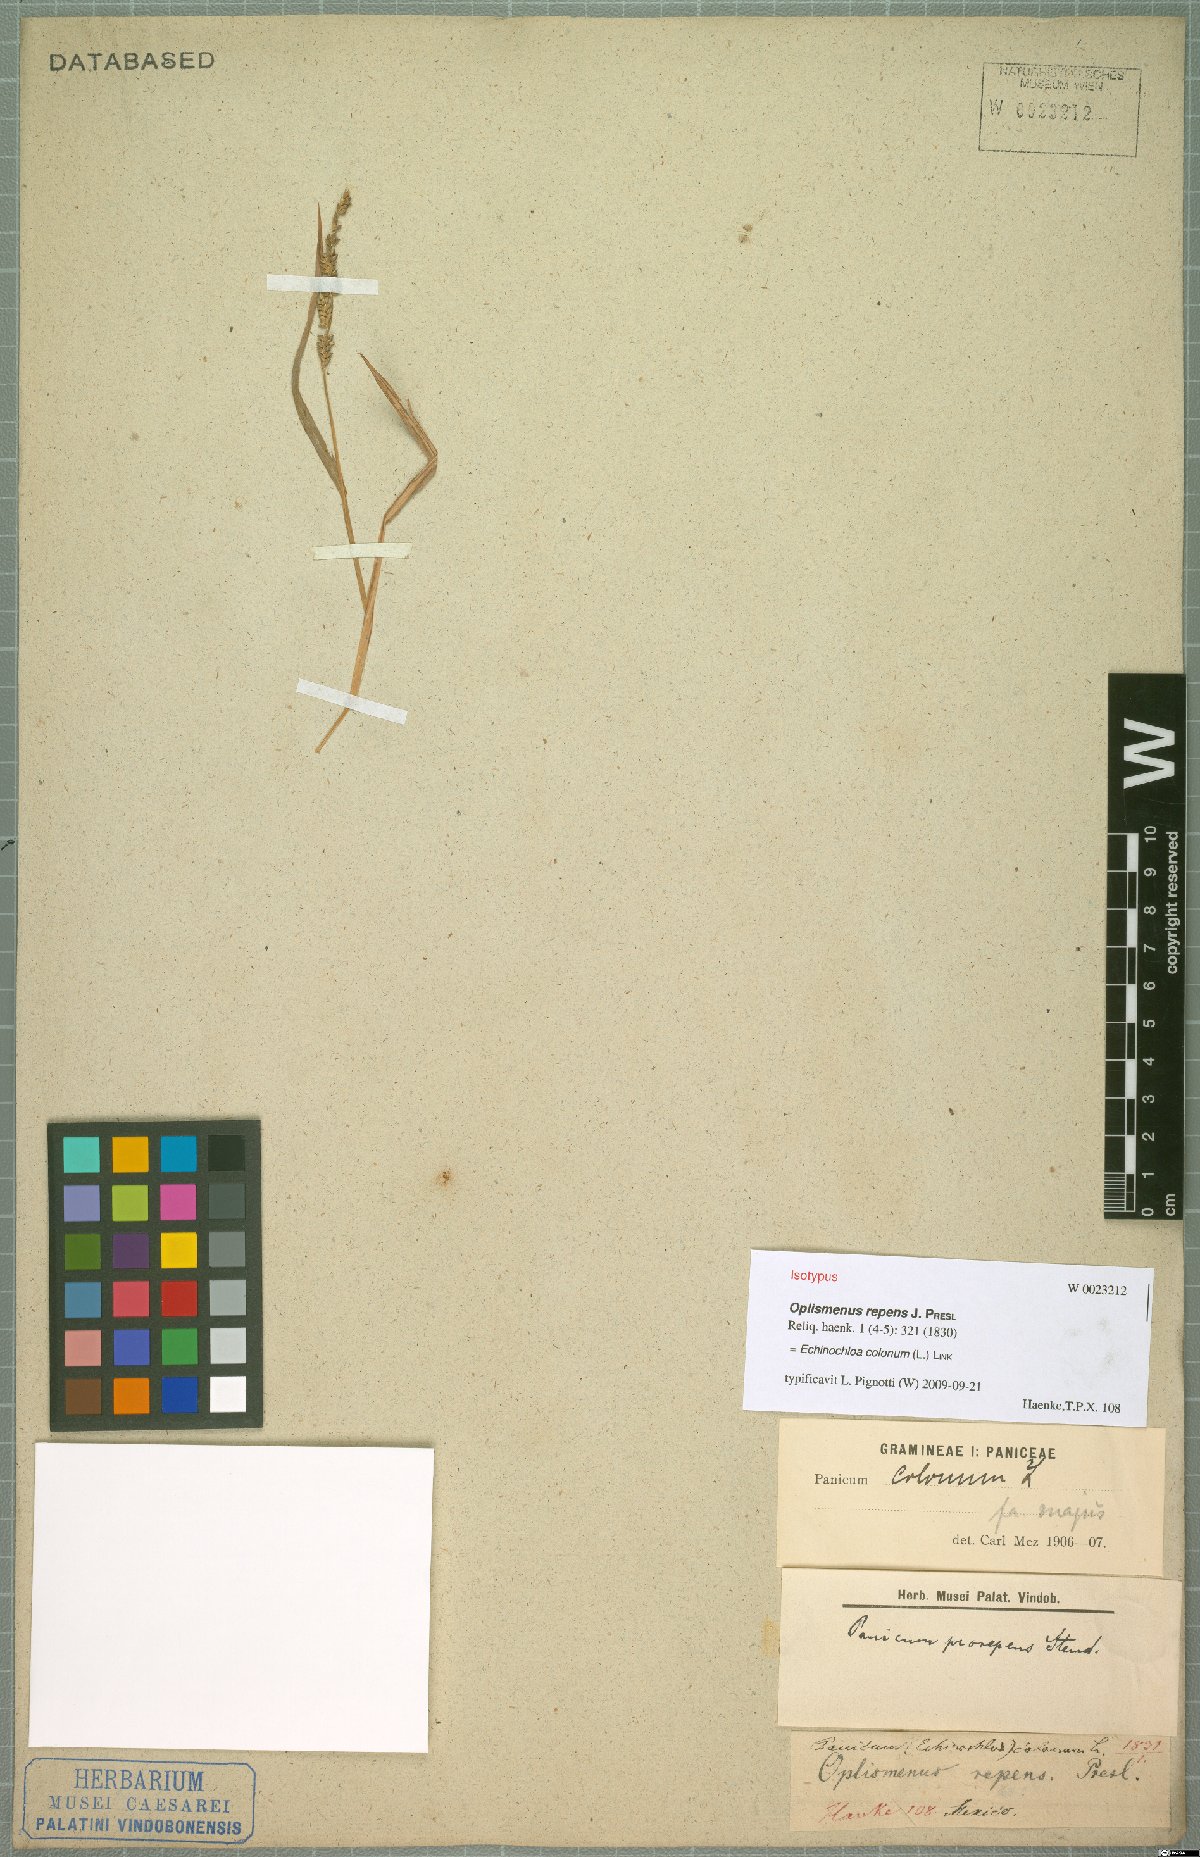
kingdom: Plantae
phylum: Tracheophyta
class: Liliopsida
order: Poales
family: Poaceae
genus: Echinochloa
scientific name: Echinochloa colonum
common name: Jungle rice
